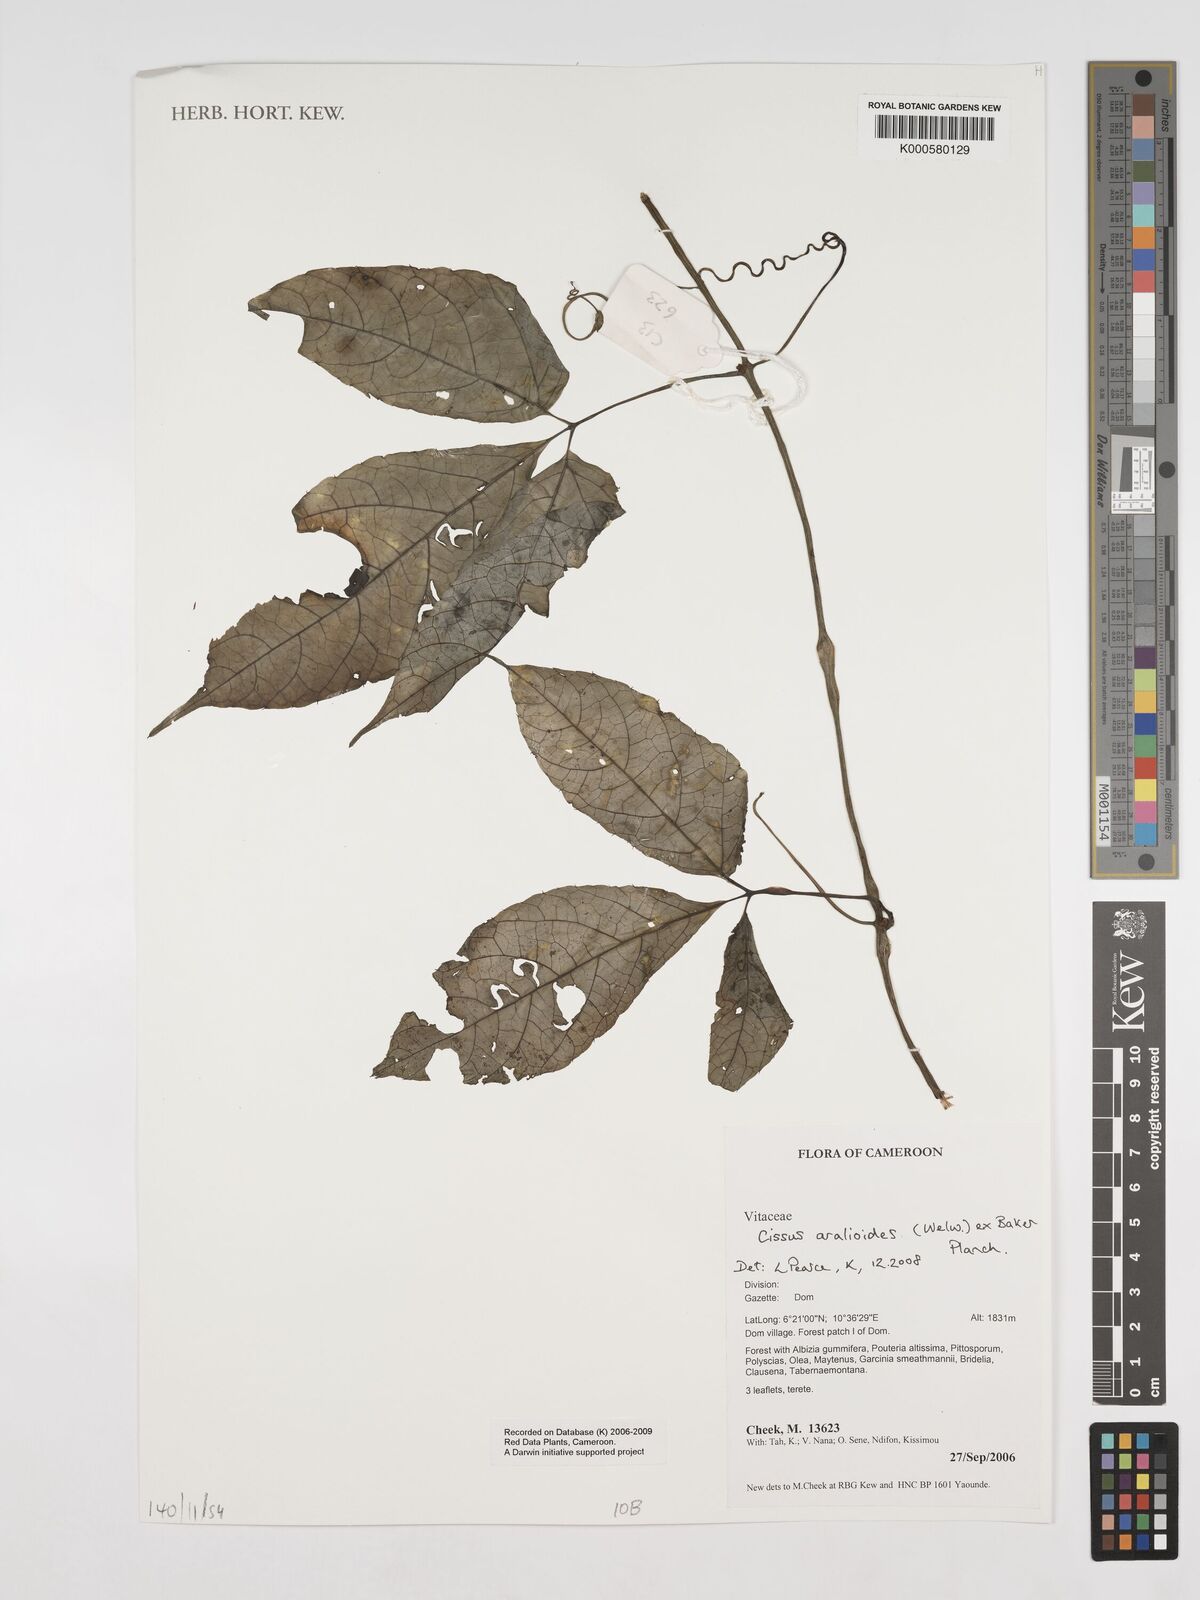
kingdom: Plantae
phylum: Tracheophyta
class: Magnoliopsida
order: Vitales
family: Vitaceae
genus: Cissus
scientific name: Cissus aralioides
